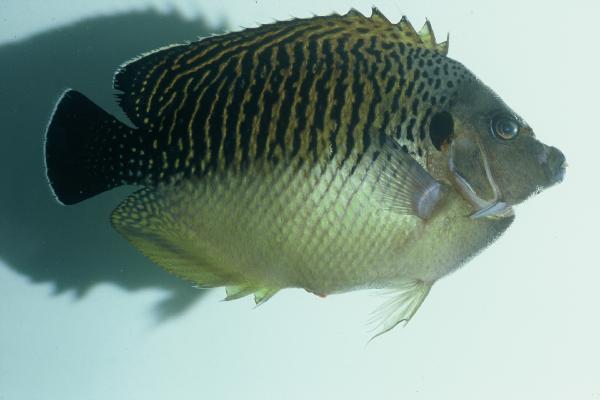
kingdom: Animalia
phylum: Chordata
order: Perciformes
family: Pomacanthidae
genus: Apolemichthys
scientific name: Apolemichthys kingi
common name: Tiger angelfish
